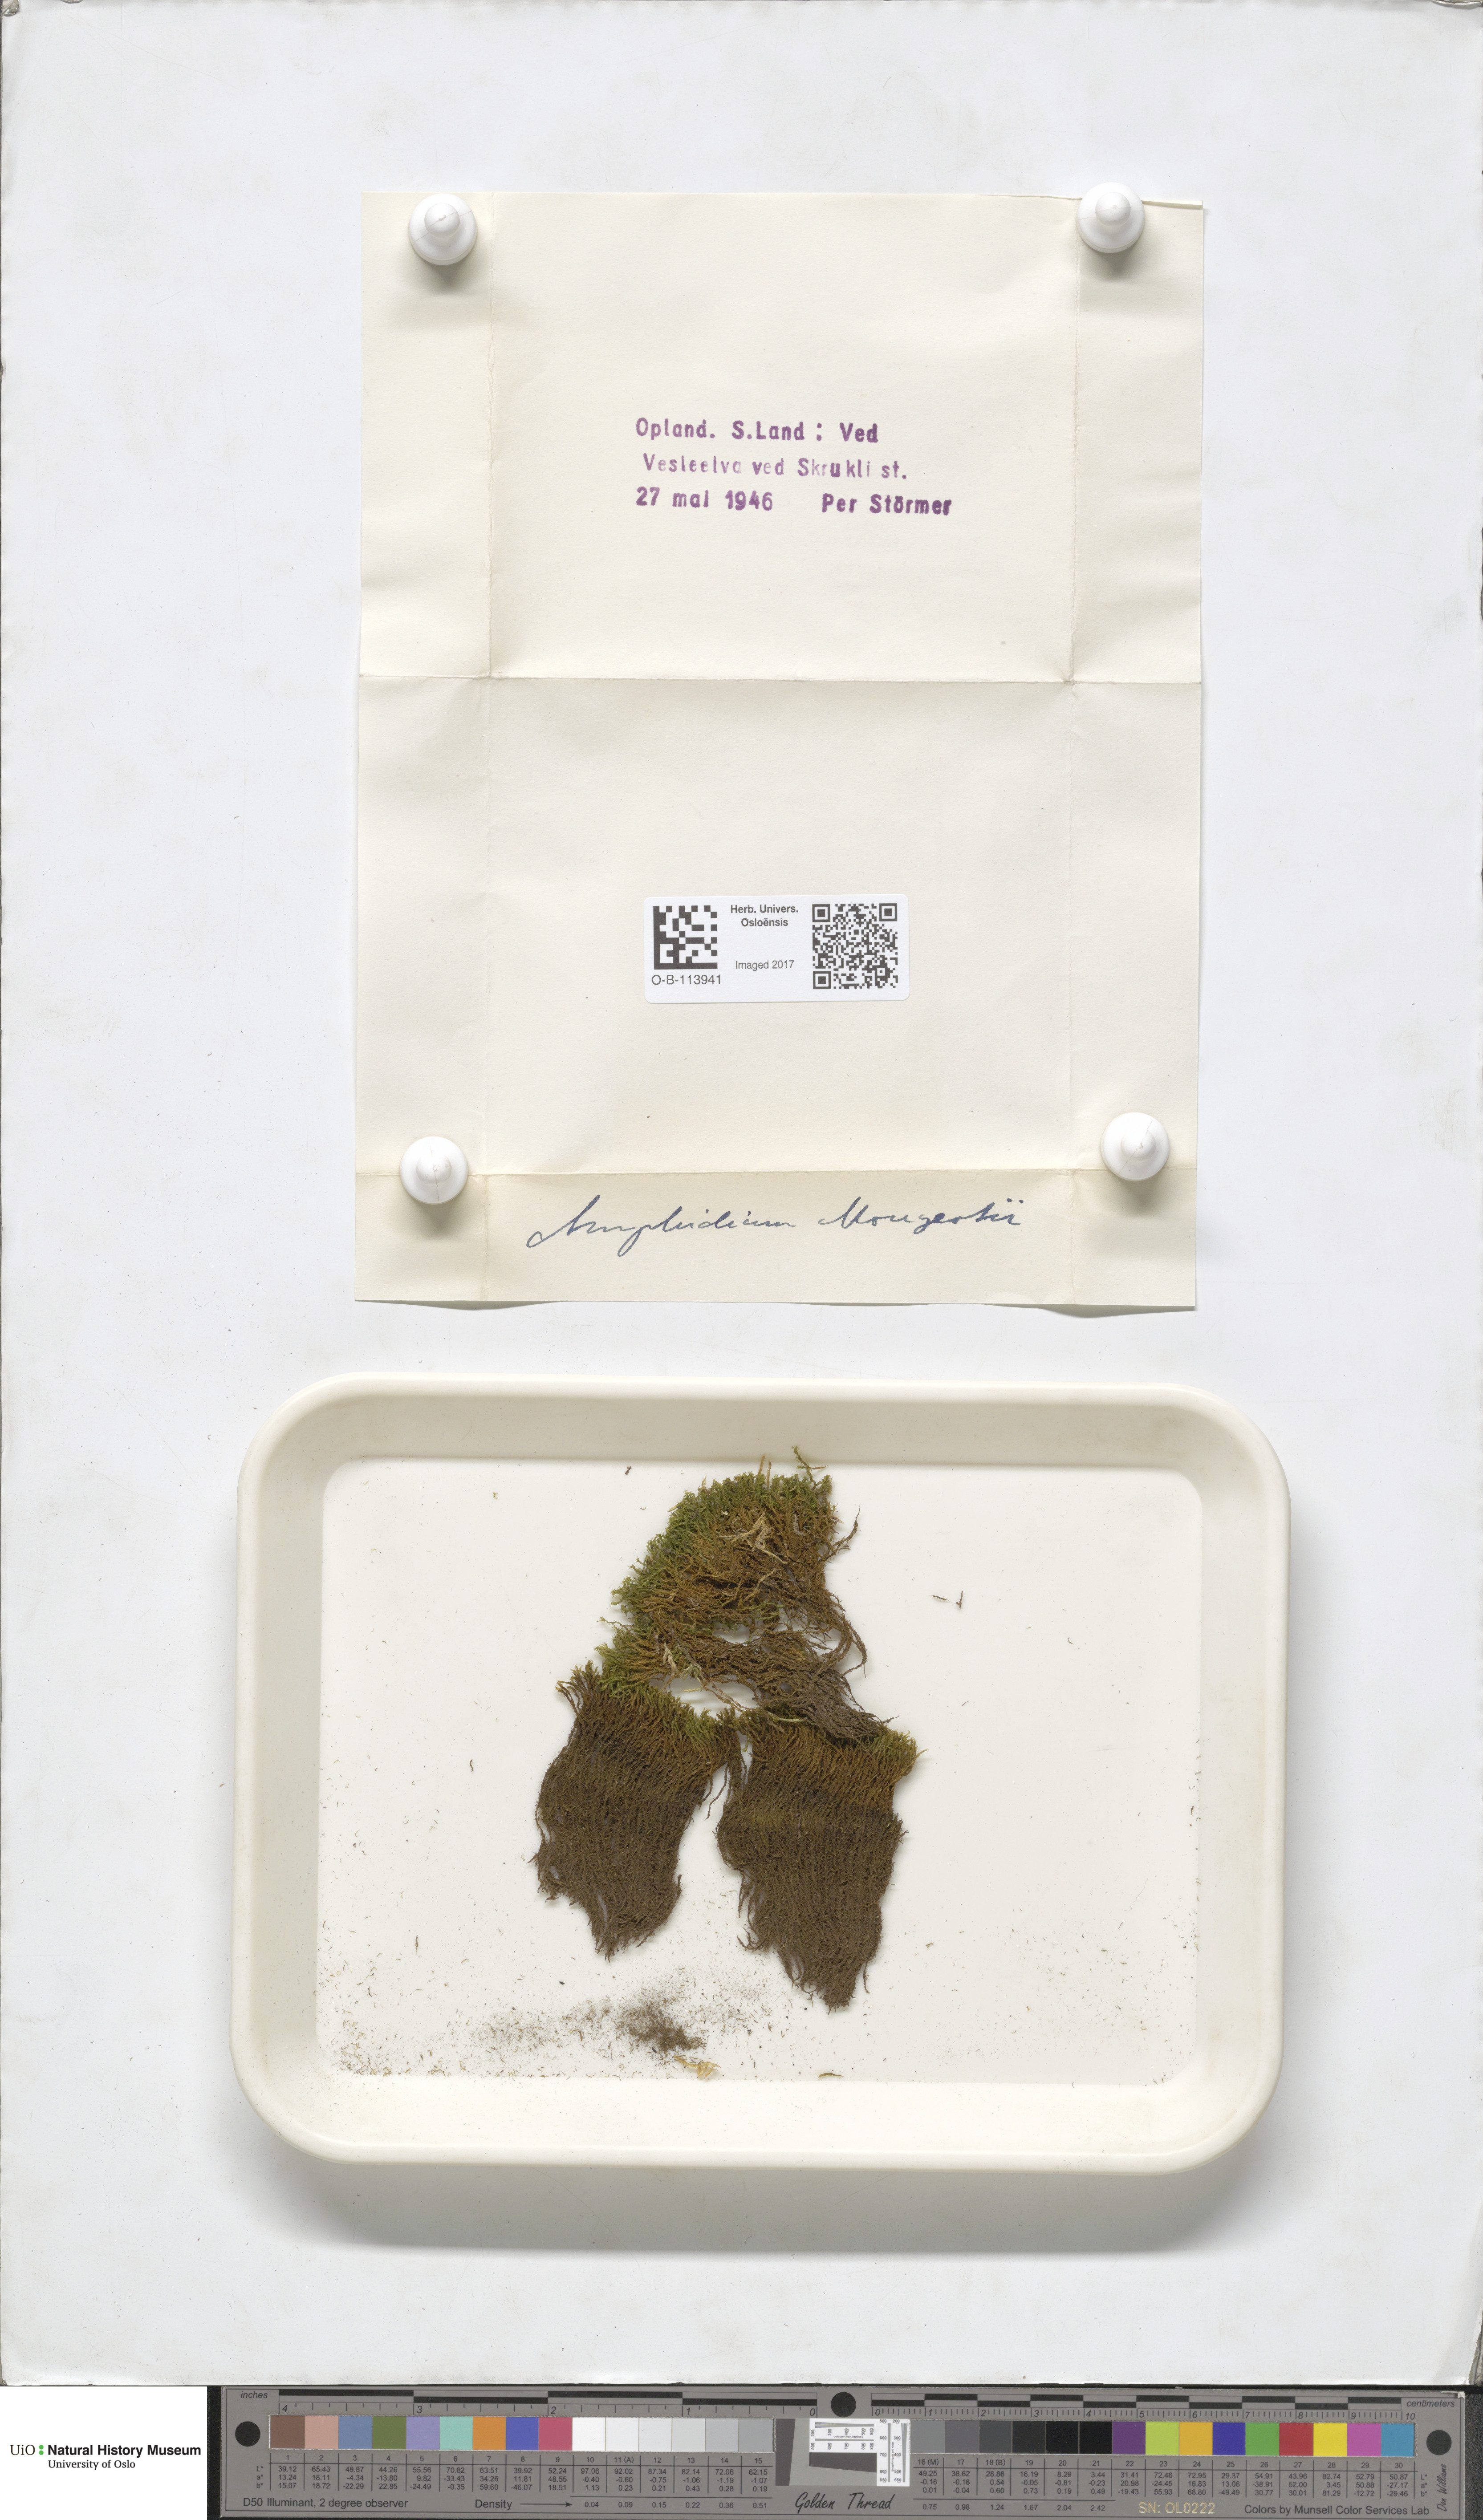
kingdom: Plantae
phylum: Bryophyta
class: Bryopsida
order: Dicranales
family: Amphidiaceae
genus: Amphidium
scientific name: Amphidium mougeotii
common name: Mougeot's yoke moss
